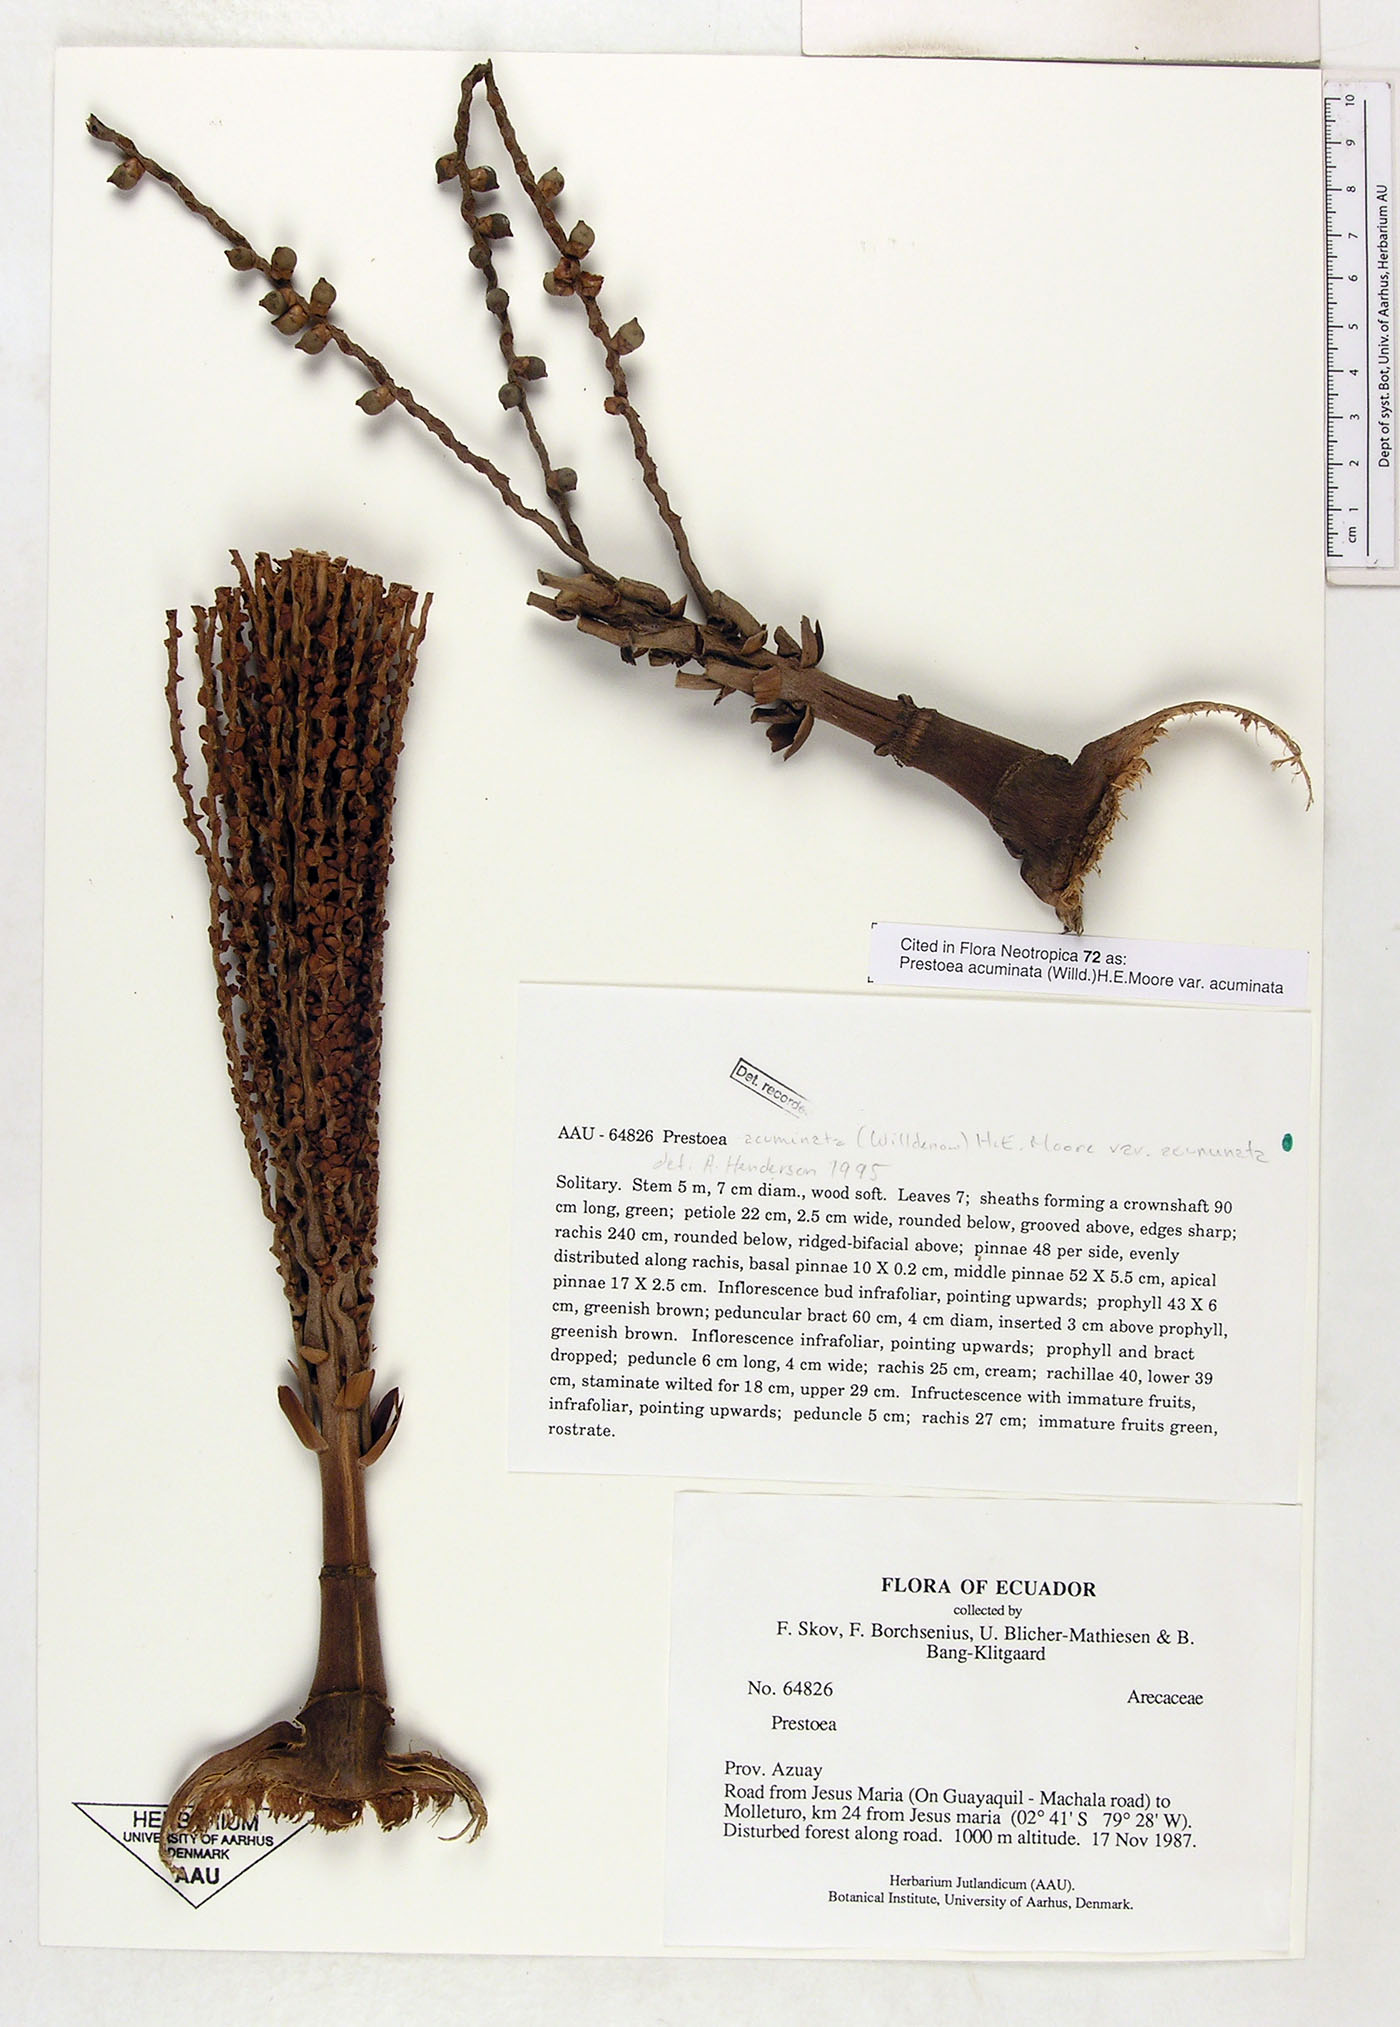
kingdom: Plantae
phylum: Tracheophyta
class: Liliopsida
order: Arecales
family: Arecaceae
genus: Prestoea
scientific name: Prestoea acuminata
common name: Sierran palm
